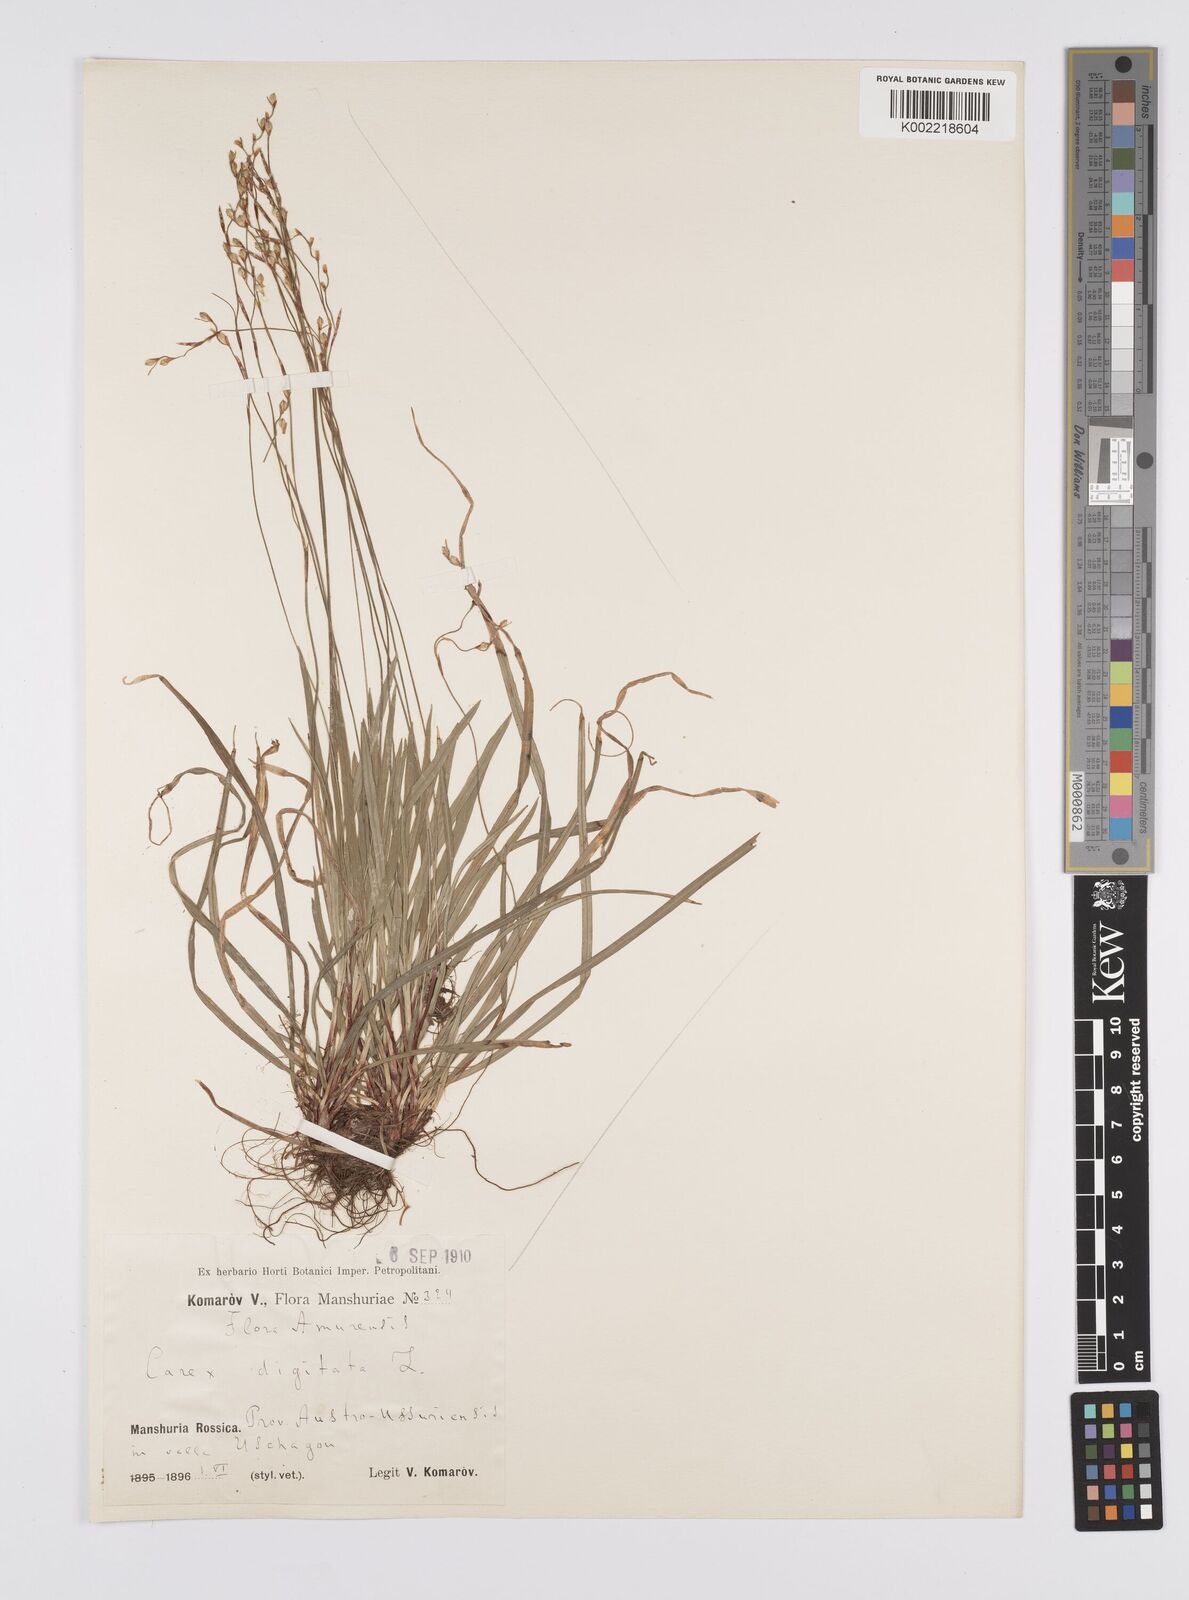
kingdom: Plantae
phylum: Tracheophyta
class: Liliopsida
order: Poales
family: Cyperaceae
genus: Carex
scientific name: Carex digitata
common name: Fingered sedge
